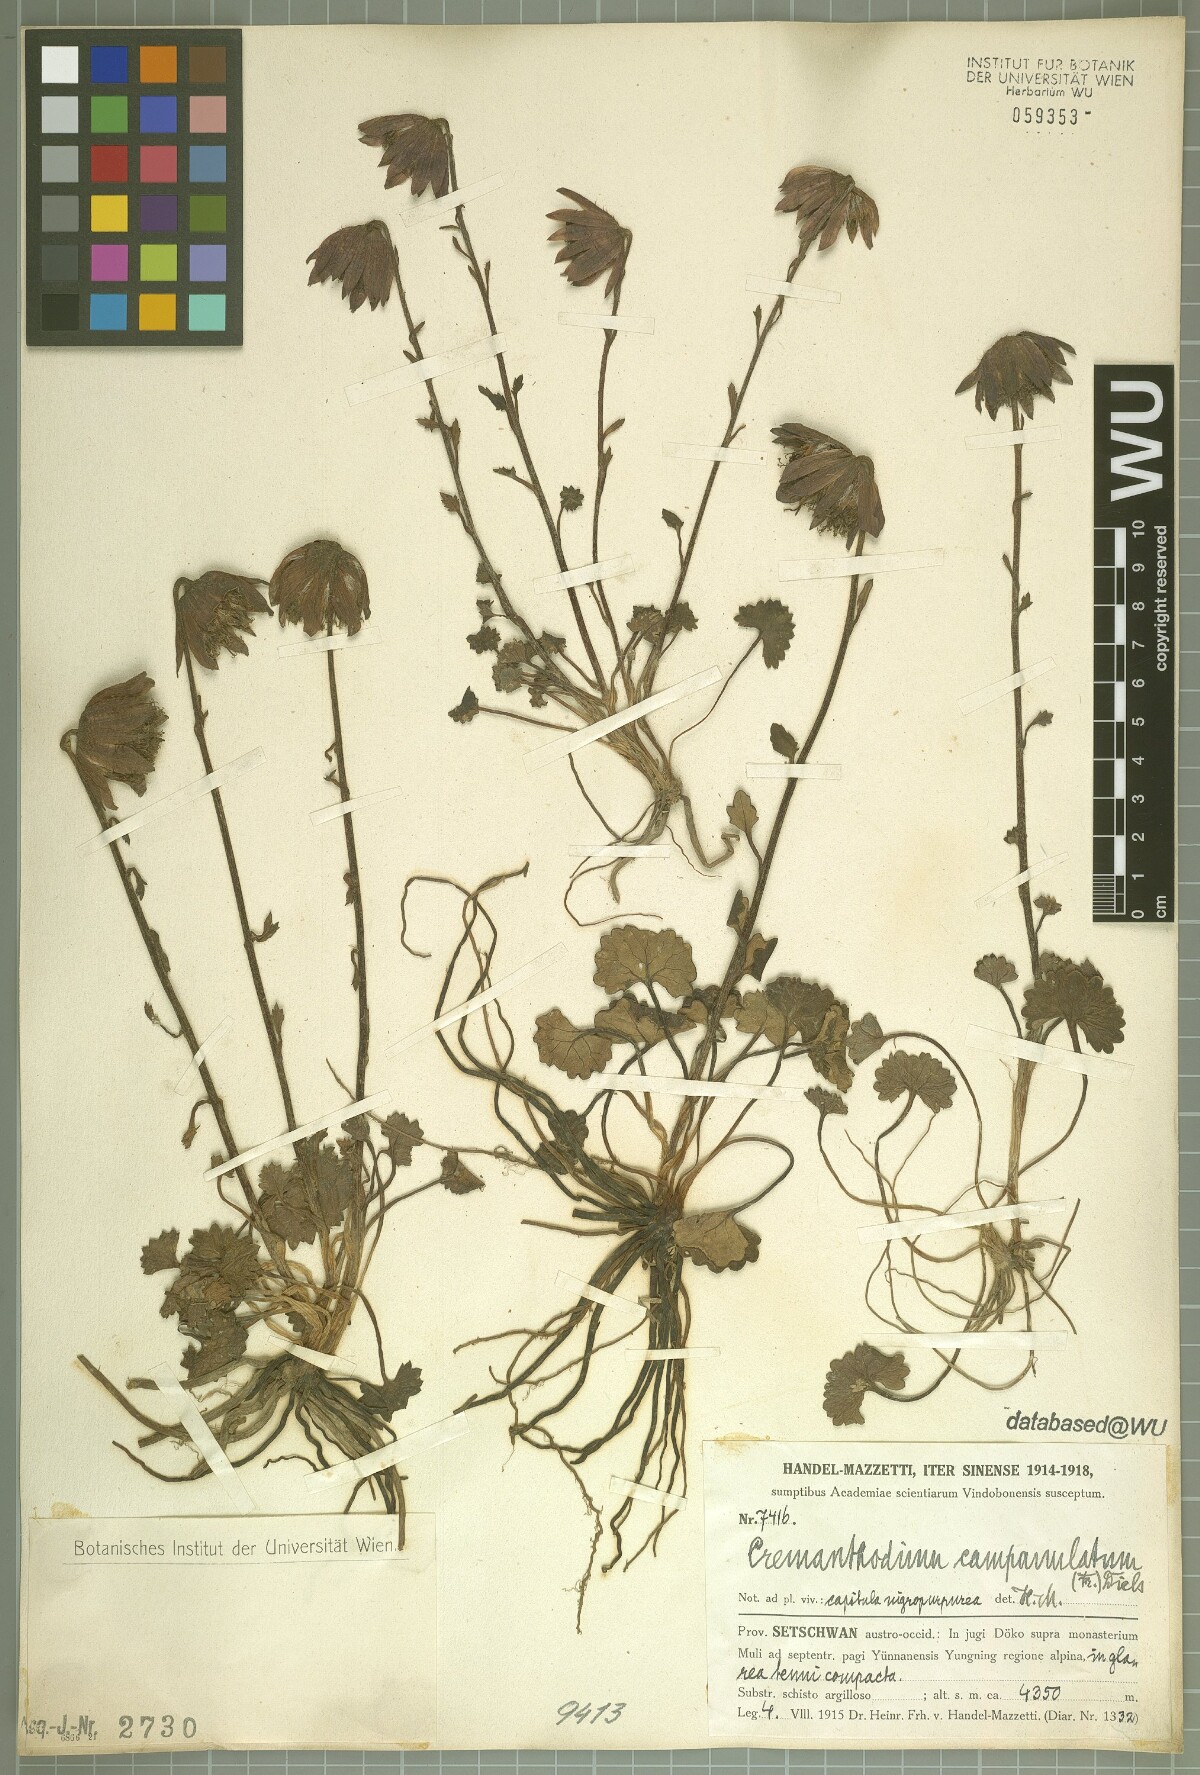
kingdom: Plantae
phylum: Tracheophyta
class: Magnoliopsida
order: Asterales
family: Asteraceae
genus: Cremanthodium
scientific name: Cremanthodium campanulatum
